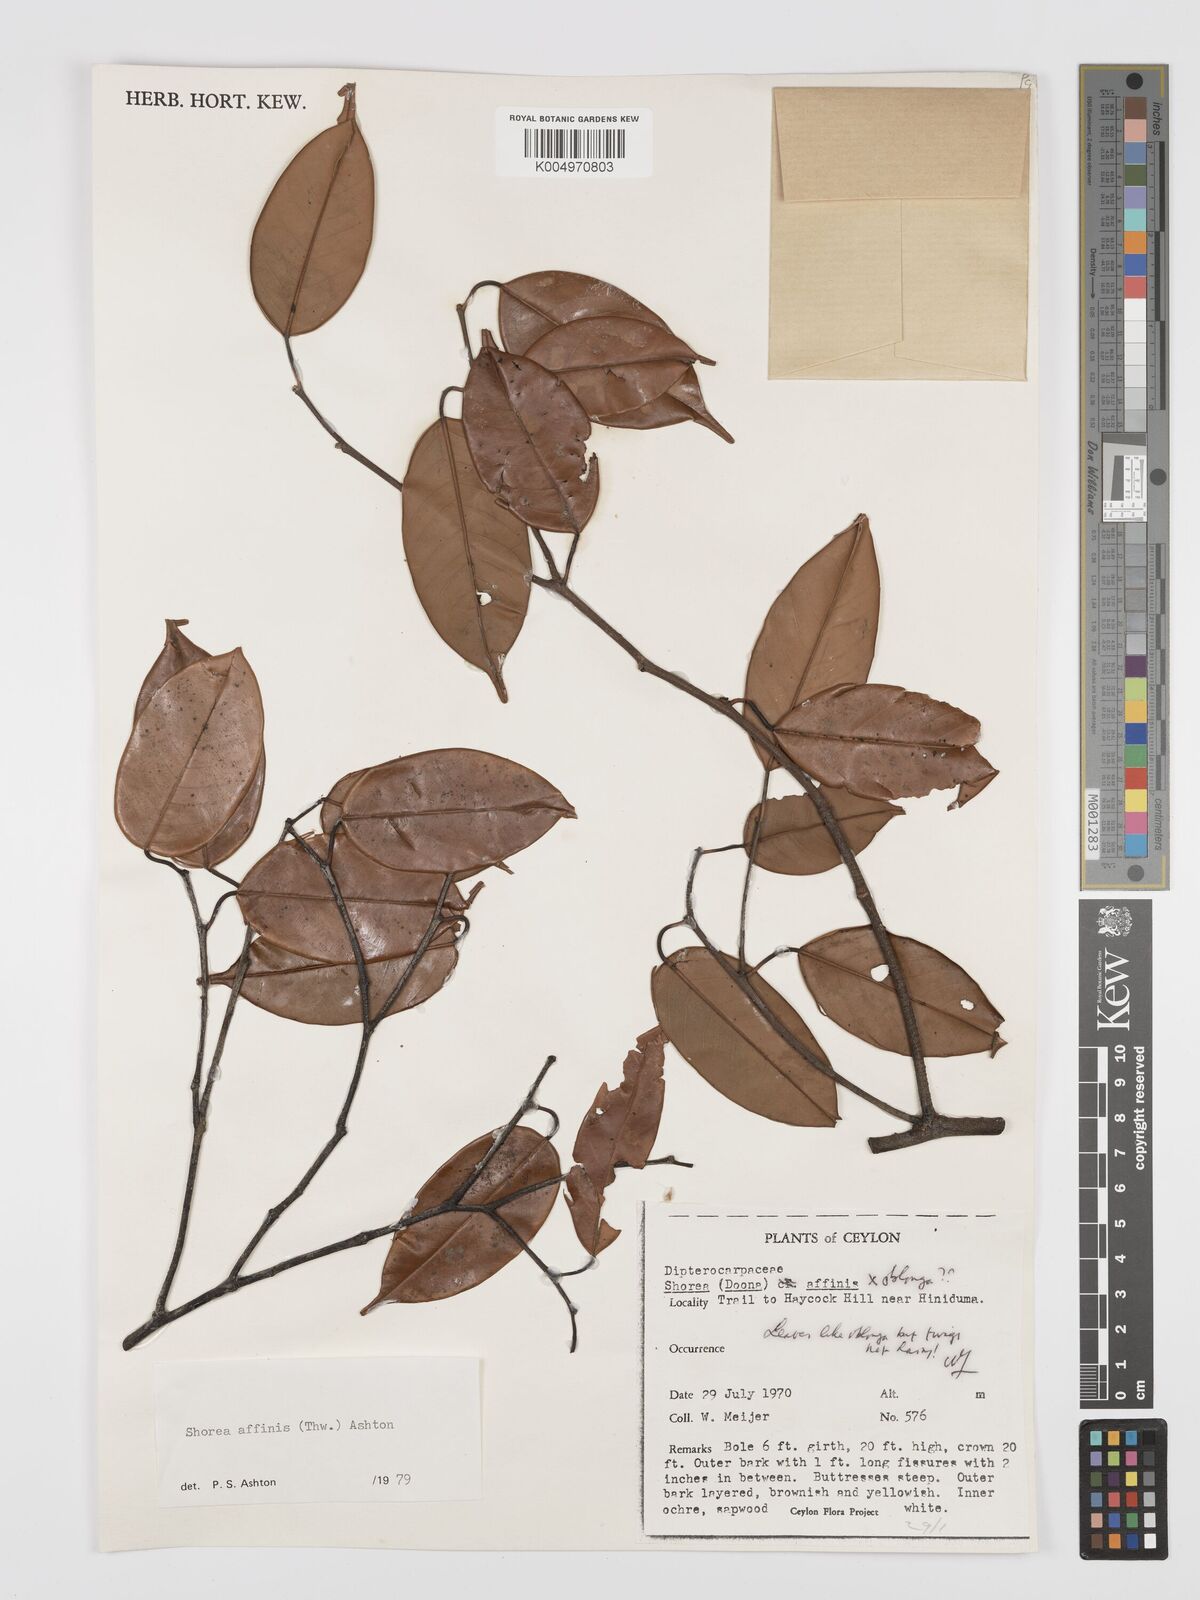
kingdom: Plantae
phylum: Tracheophyta
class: Magnoliopsida
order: Malvales
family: Dipterocarpaceae
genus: Doona
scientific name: Doona affinis
